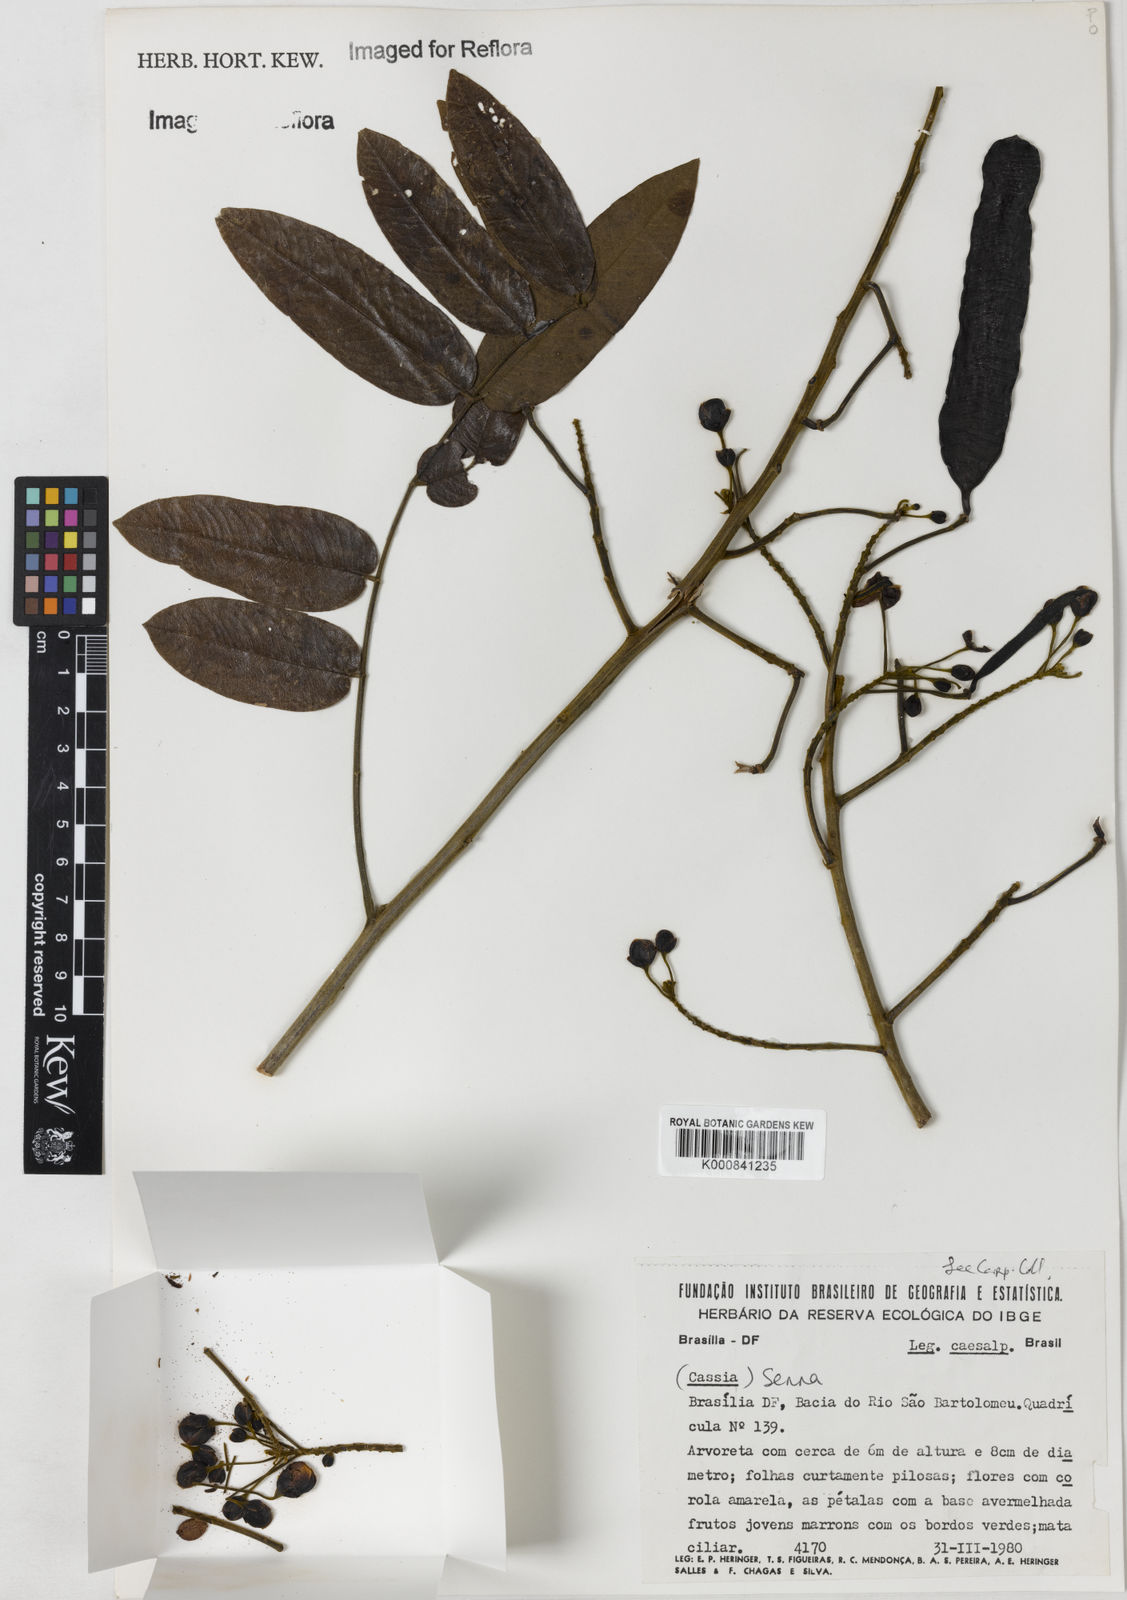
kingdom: Plantae
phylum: Tracheophyta
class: Magnoliopsida
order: Fabales
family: Fabaceae
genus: Senna
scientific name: Senna
